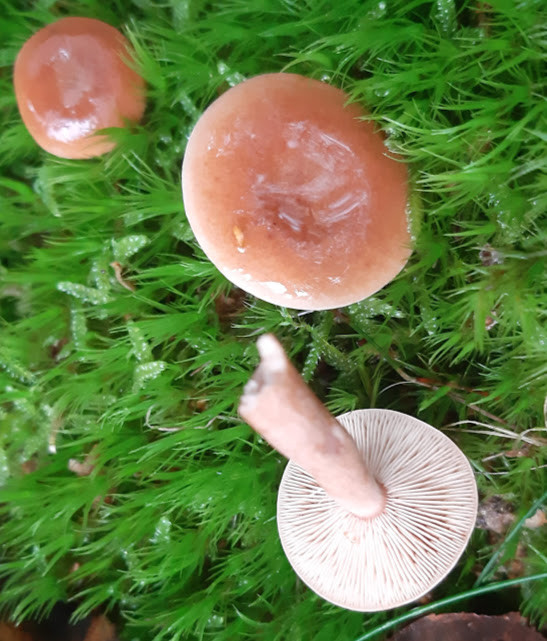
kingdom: Fungi
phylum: Basidiomycota
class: Agaricomycetes
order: Russulales
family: Russulaceae
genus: Lactarius
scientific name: Lactarius tabidus
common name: rynket mælkehat
